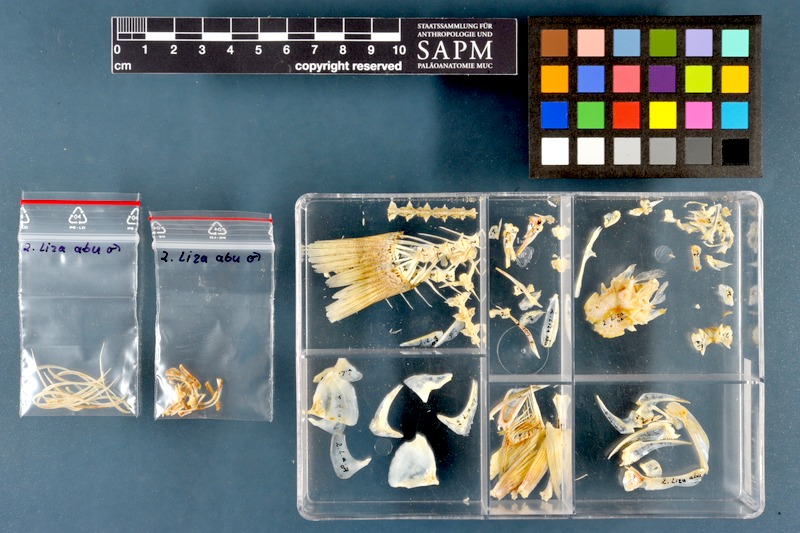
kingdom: Animalia
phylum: Chordata
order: Mugiliformes
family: Mugilidae
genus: Planiliza
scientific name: Planiliza abu
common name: Abu mullet
